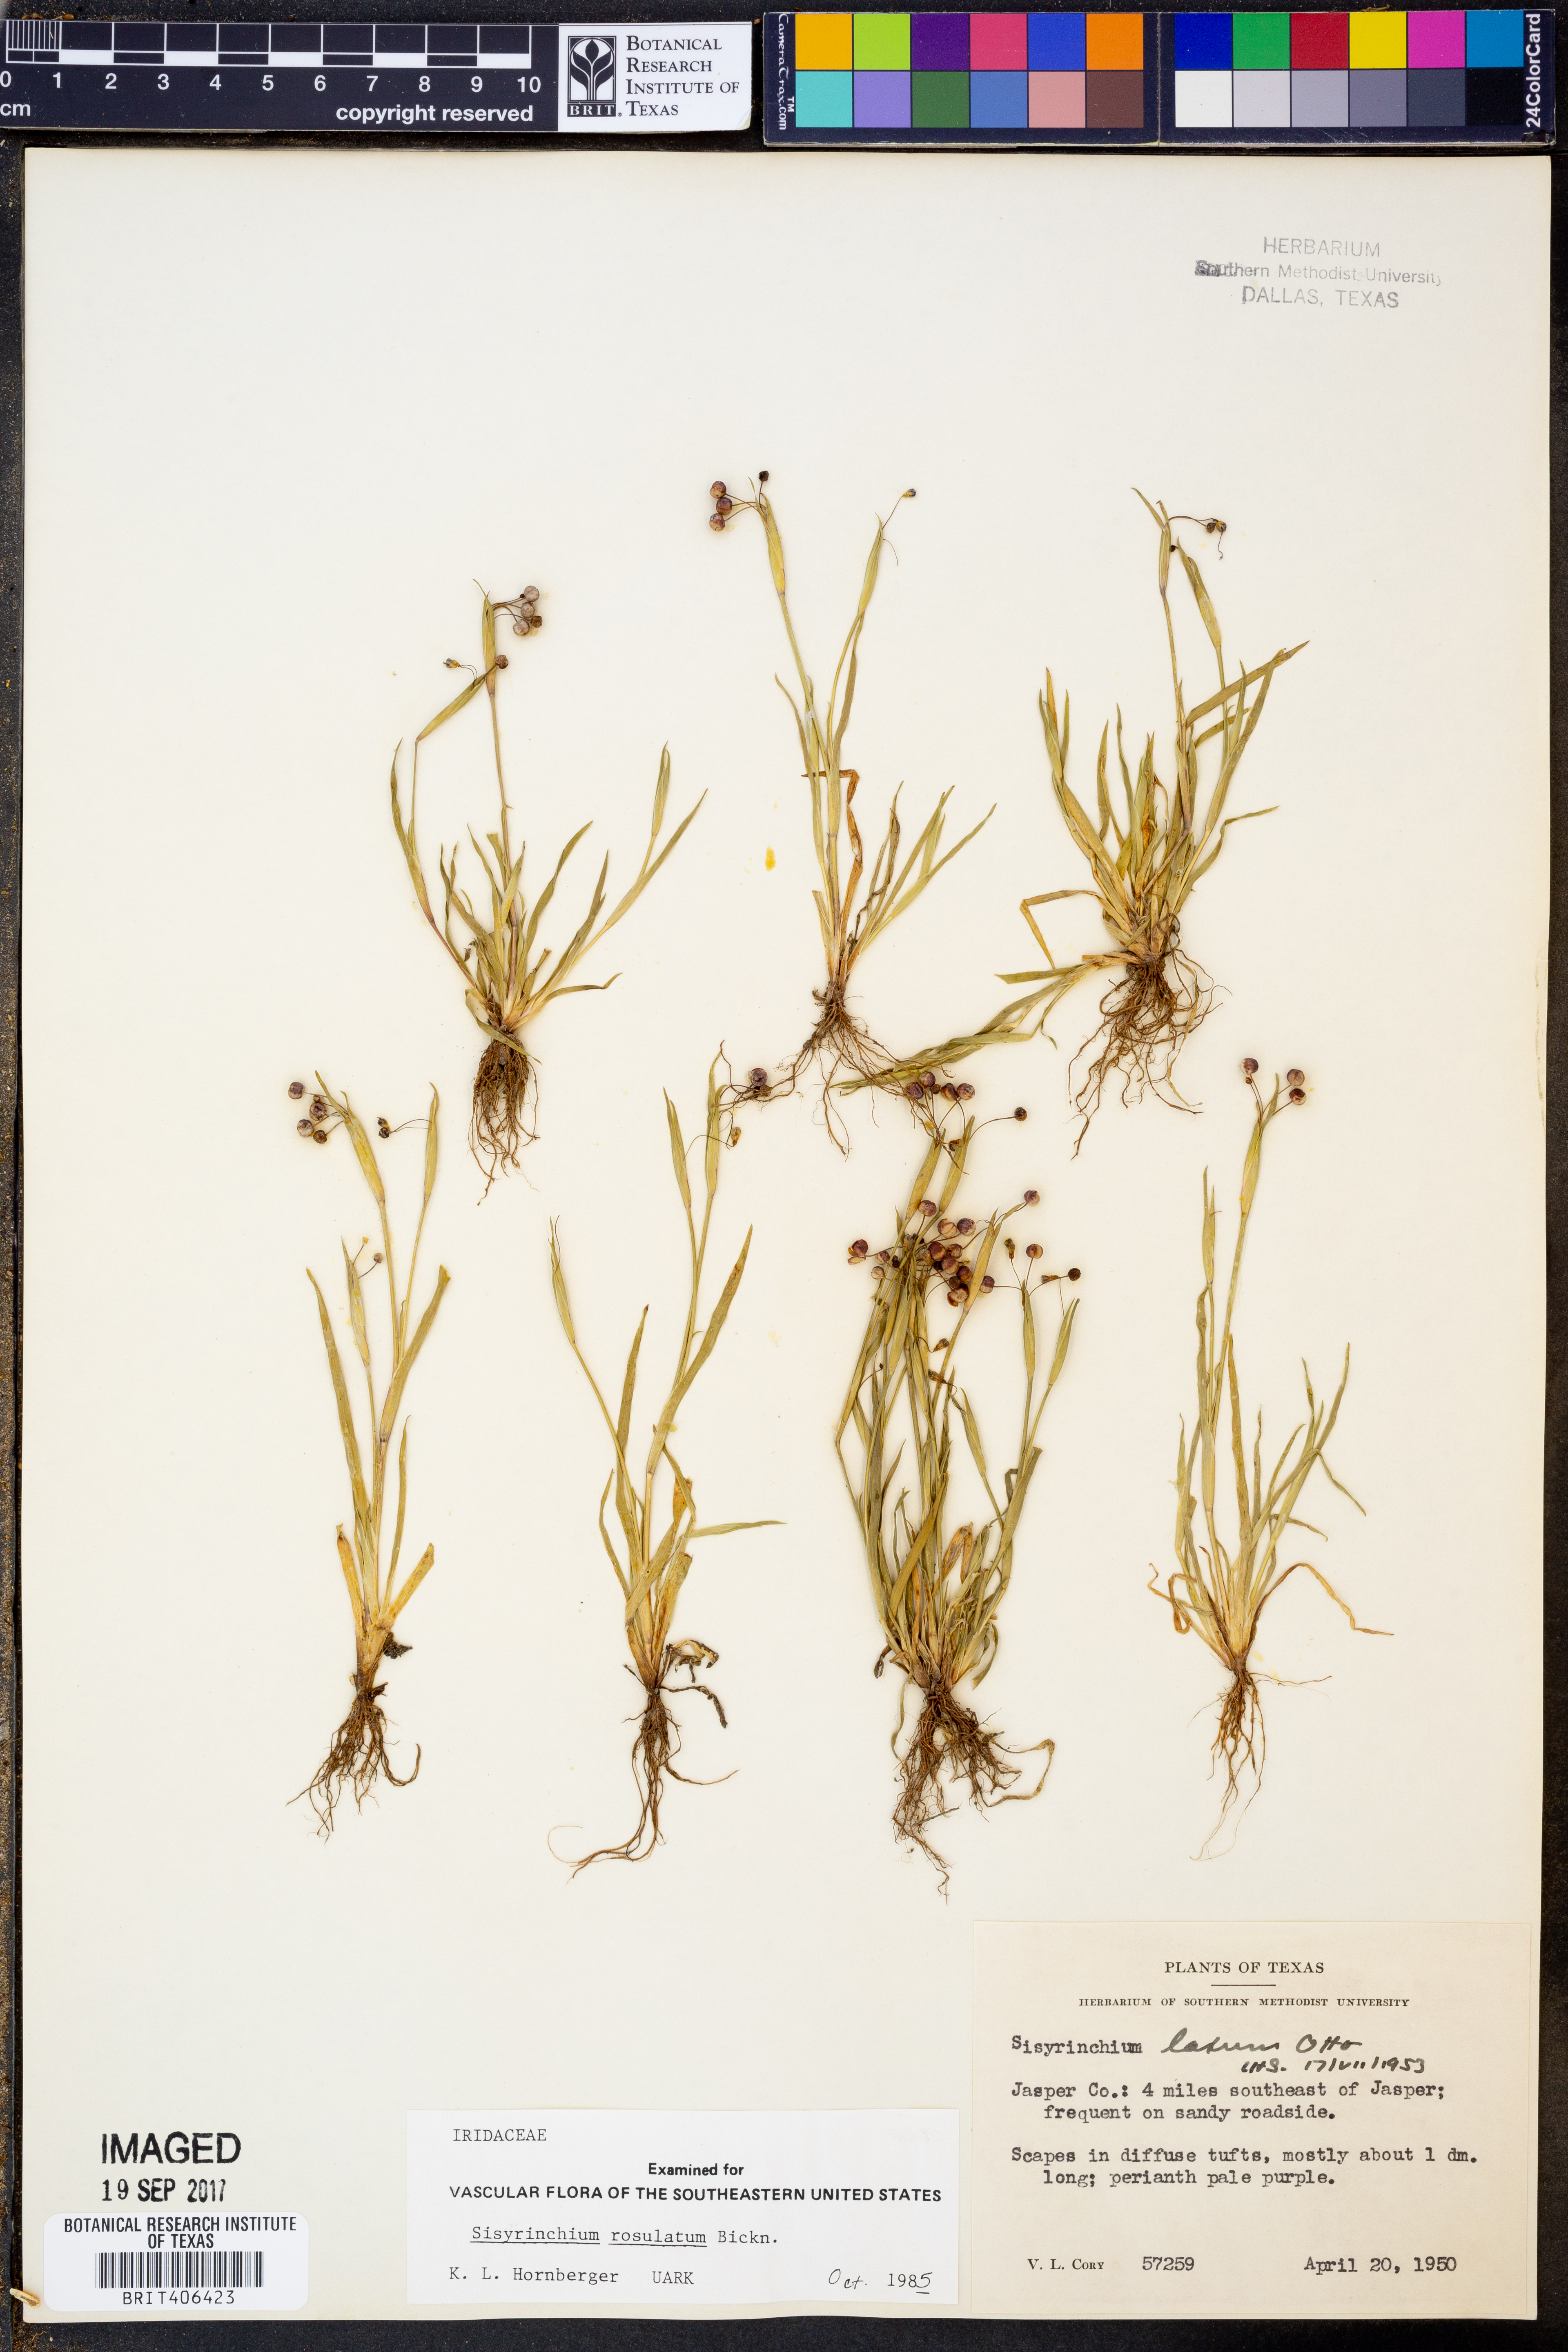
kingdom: Plantae
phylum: Tracheophyta
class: Liliopsida
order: Asparagales
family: Iridaceae
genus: Sisyrinchium
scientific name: Sisyrinchium rosulatum
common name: Annual blue-eyed grass
